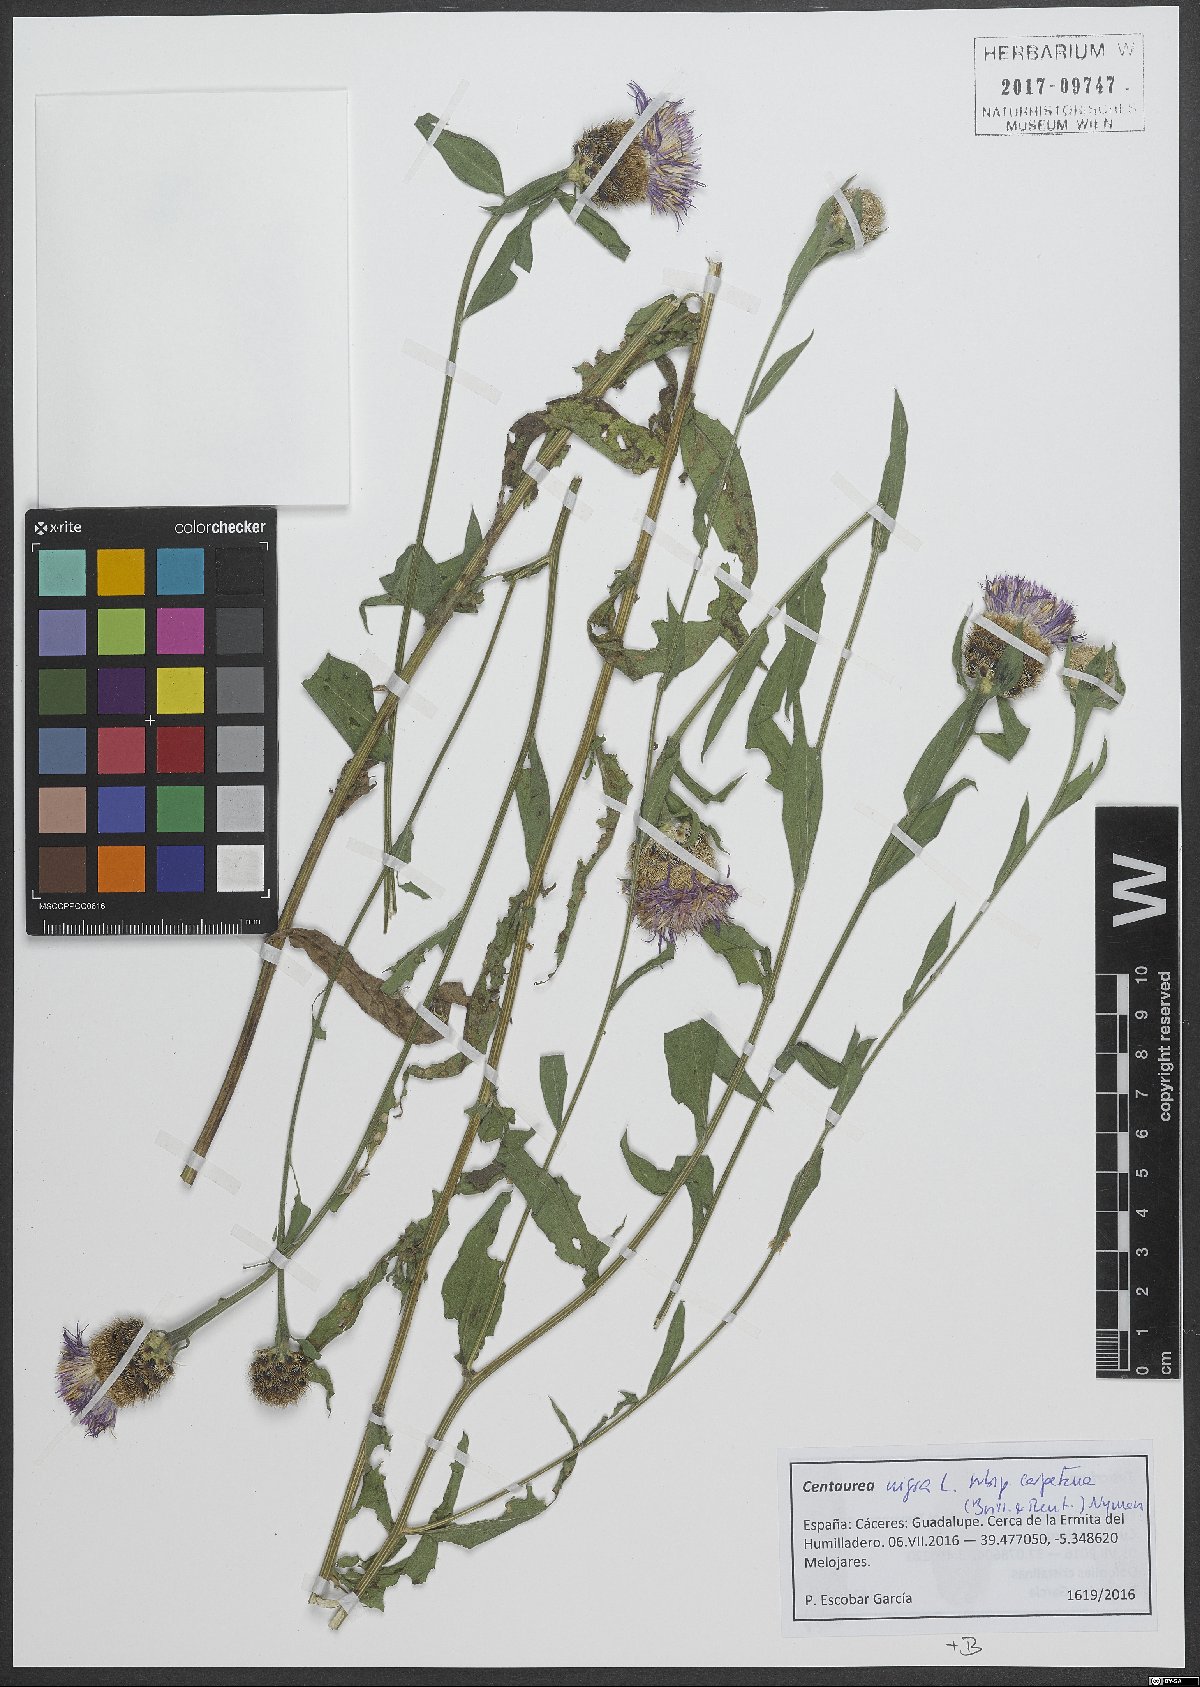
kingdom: Plantae
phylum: Tracheophyta
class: Magnoliopsida
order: Asterales
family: Asteraceae
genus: Centaurea
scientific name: Centaurea nigra
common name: Lesser knapweed
